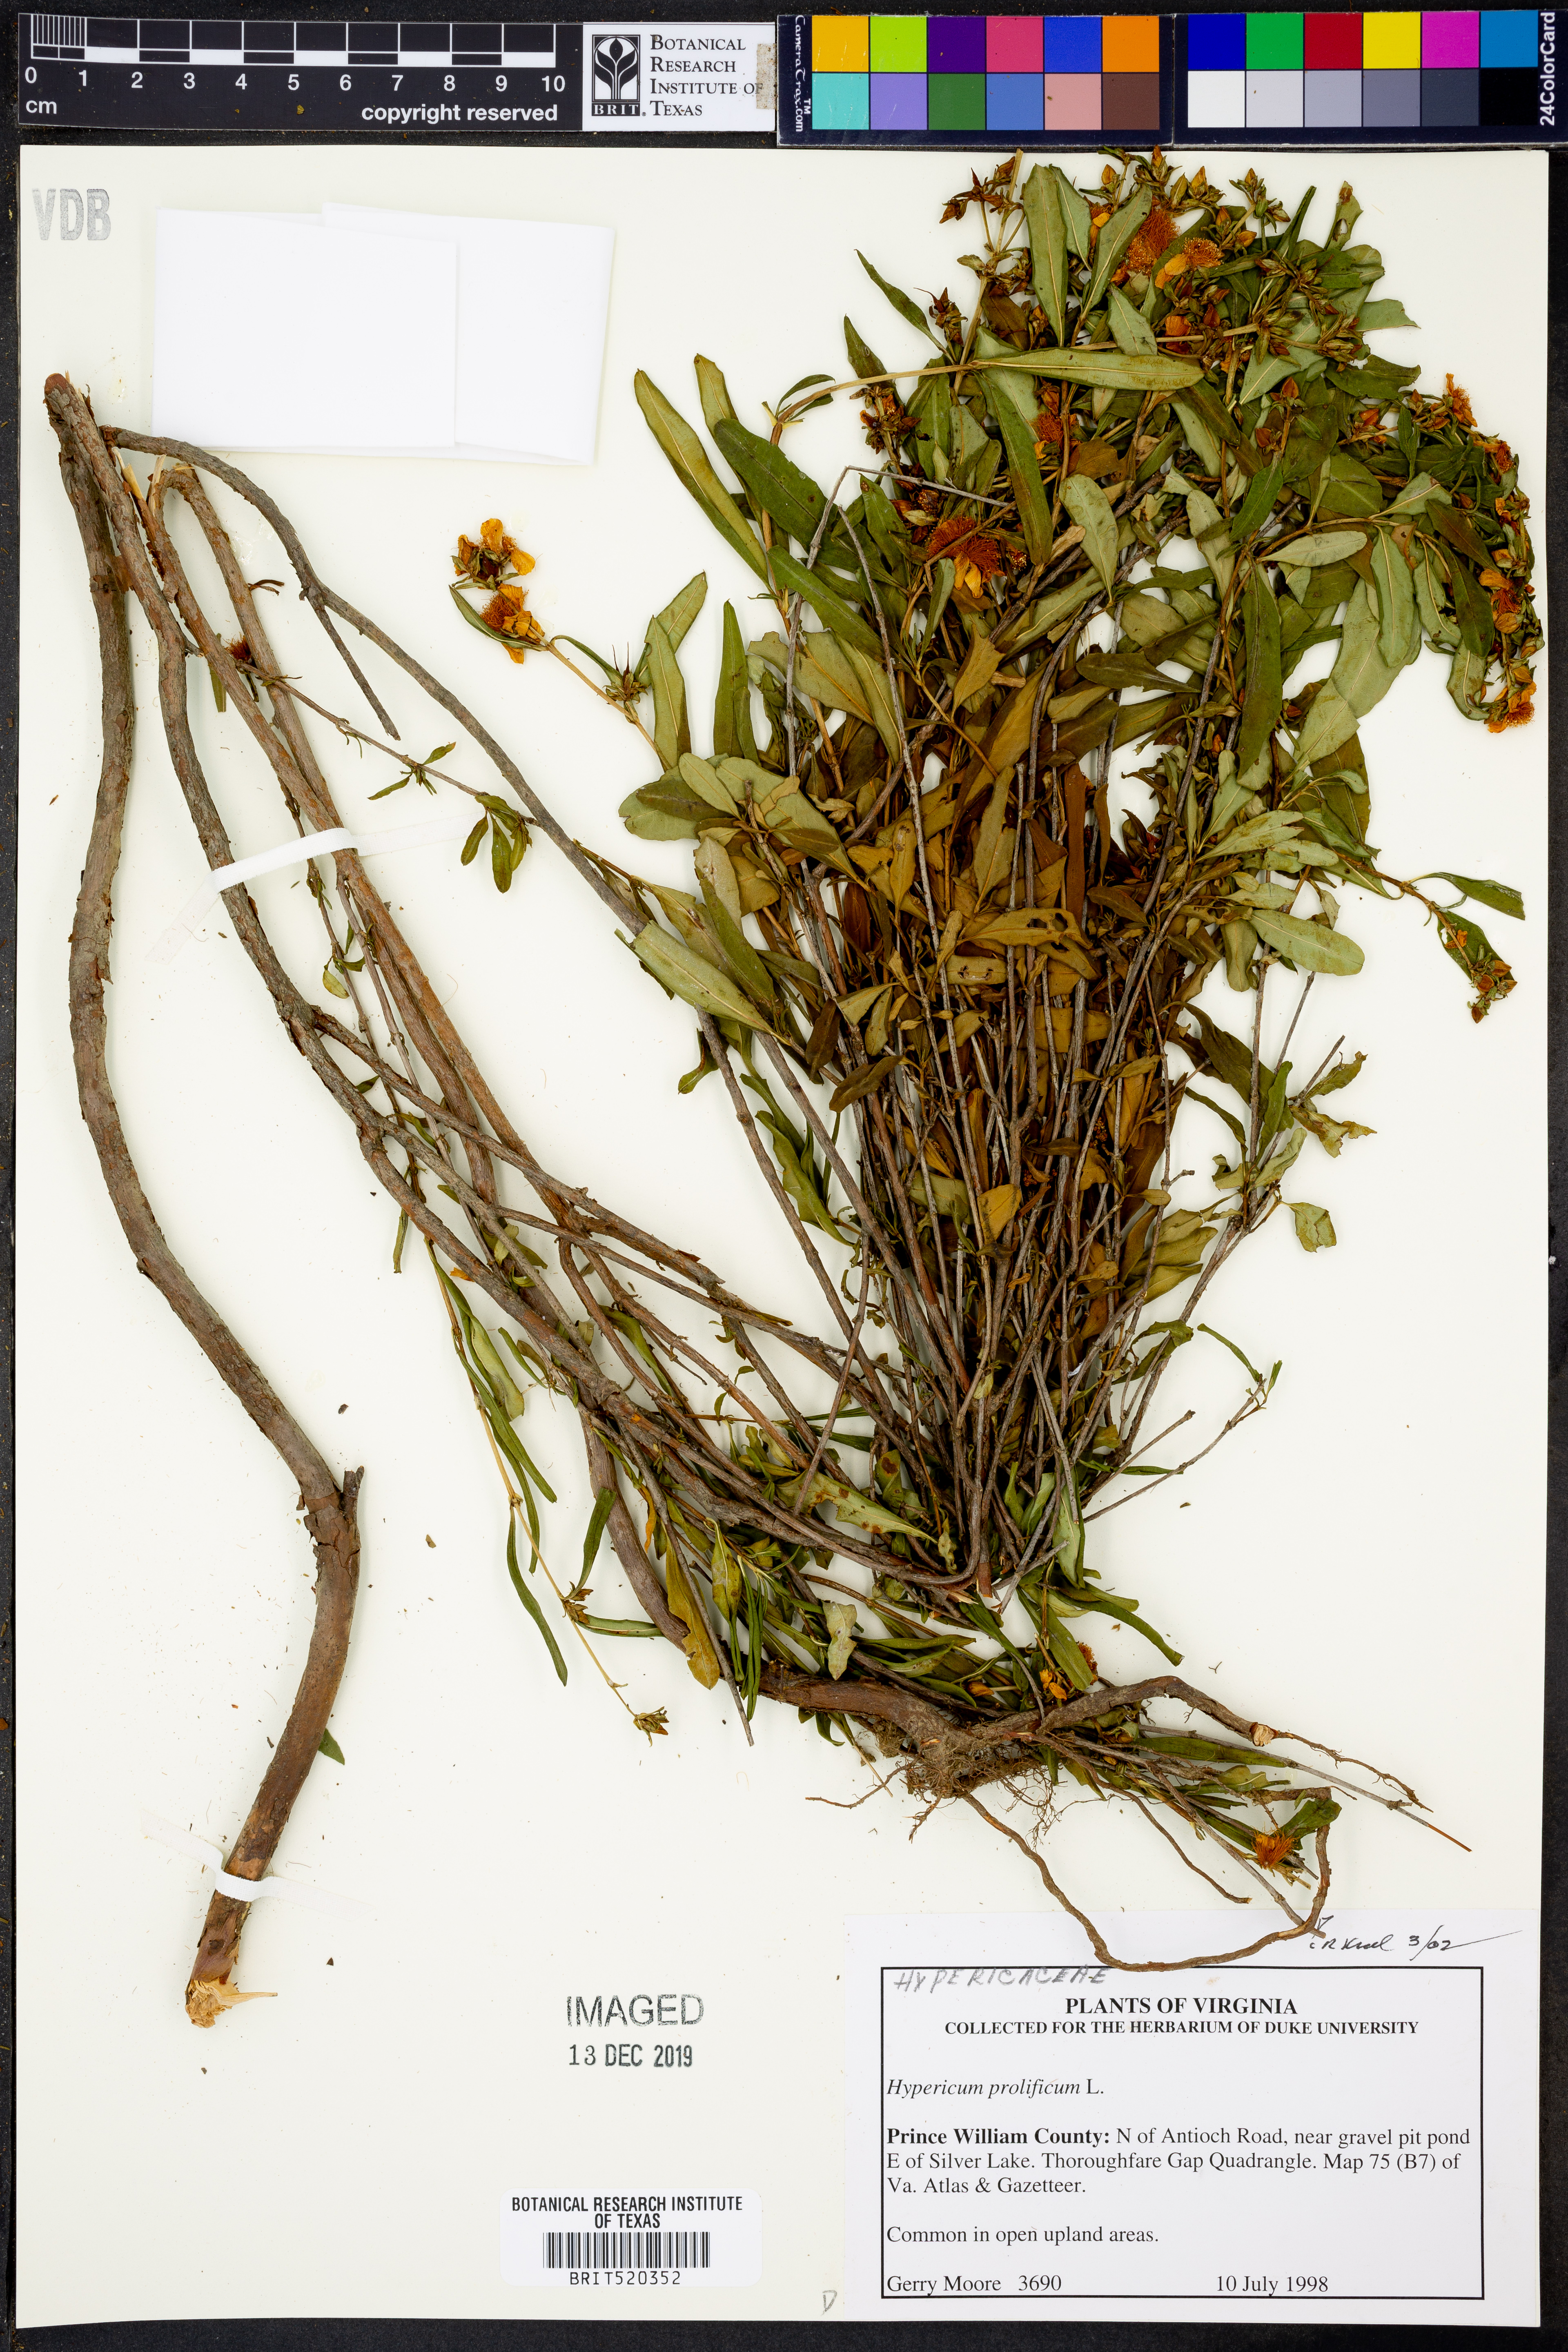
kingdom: Plantae
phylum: Tracheophyta
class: Magnoliopsida
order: Malpighiales
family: Hypericaceae
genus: Hypericum
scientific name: Hypericum prolificum
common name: Shrubby st. john's-wort
